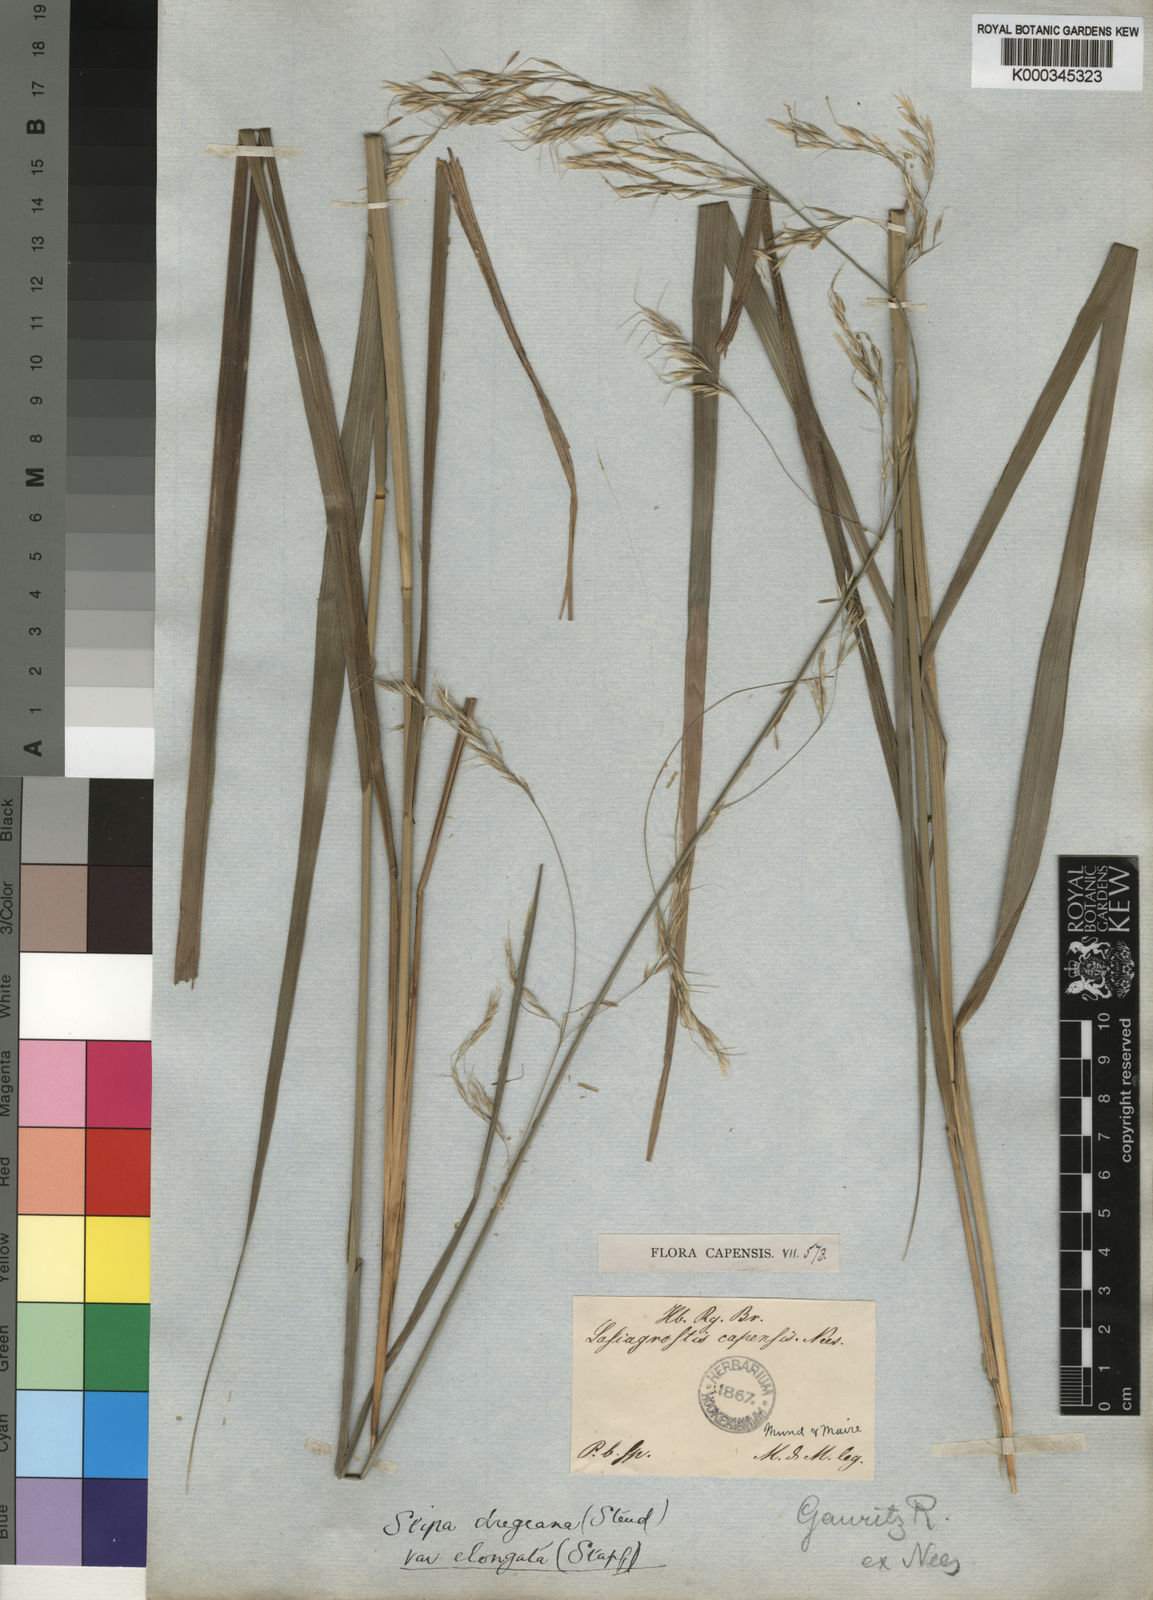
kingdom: Plantae
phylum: Tracheophyta
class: Liliopsida
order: Poales
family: Poaceae
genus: Stipa
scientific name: Stipa dregeana
